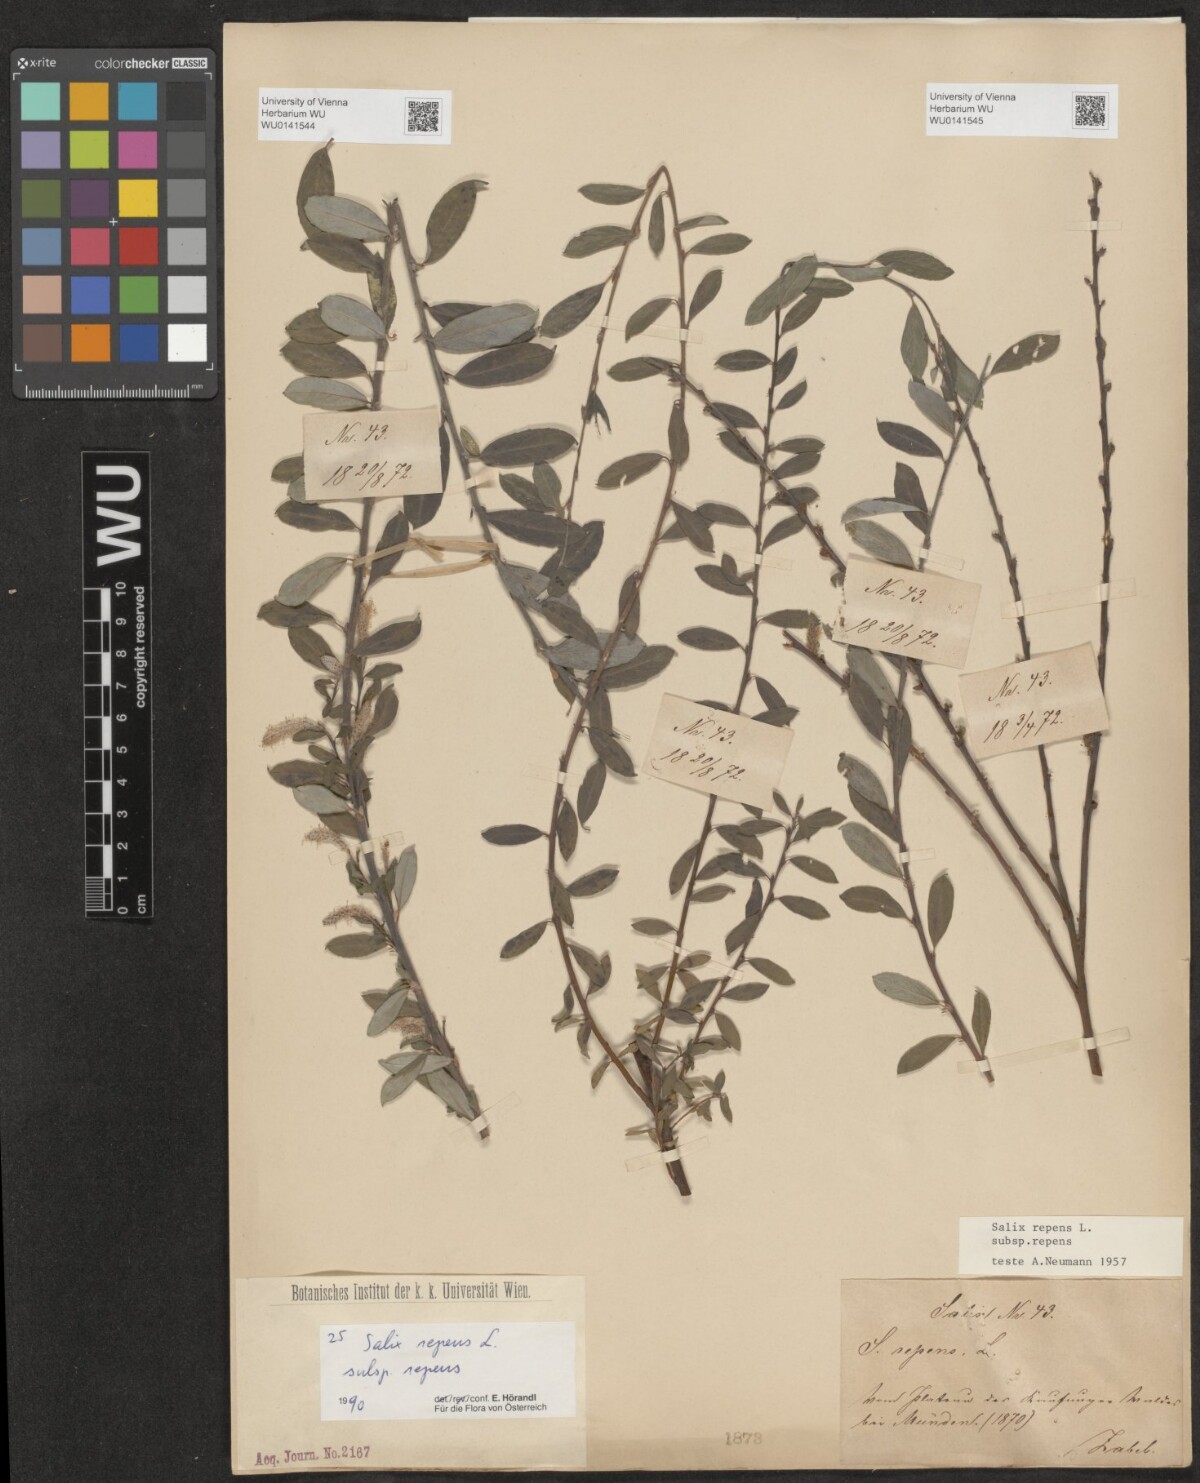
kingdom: Plantae
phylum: Tracheophyta
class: Magnoliopsida
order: Malpighiales
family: Salicaceae
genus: Salix
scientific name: Salix repens
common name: Creeping willow
